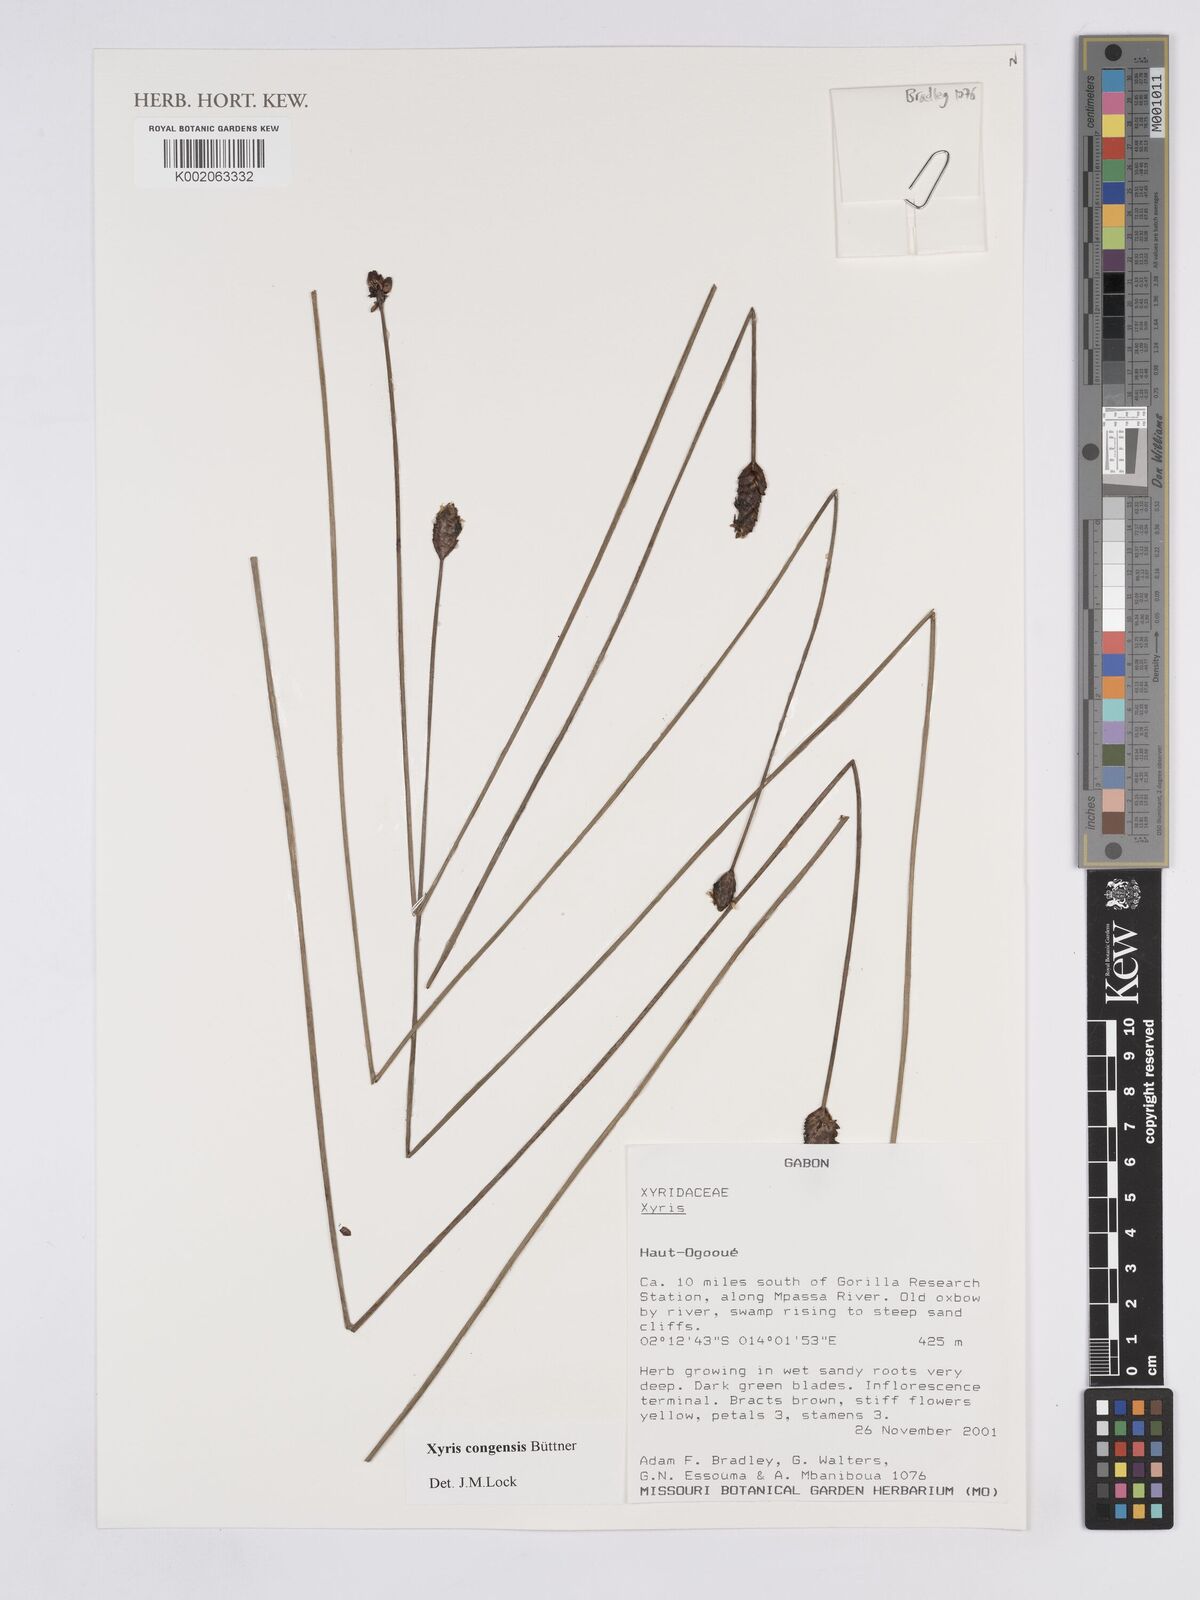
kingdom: Plantae
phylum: Tracheophyta
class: Liliopsida
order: Poales
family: Xyridaceae
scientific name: Xyridaceae
